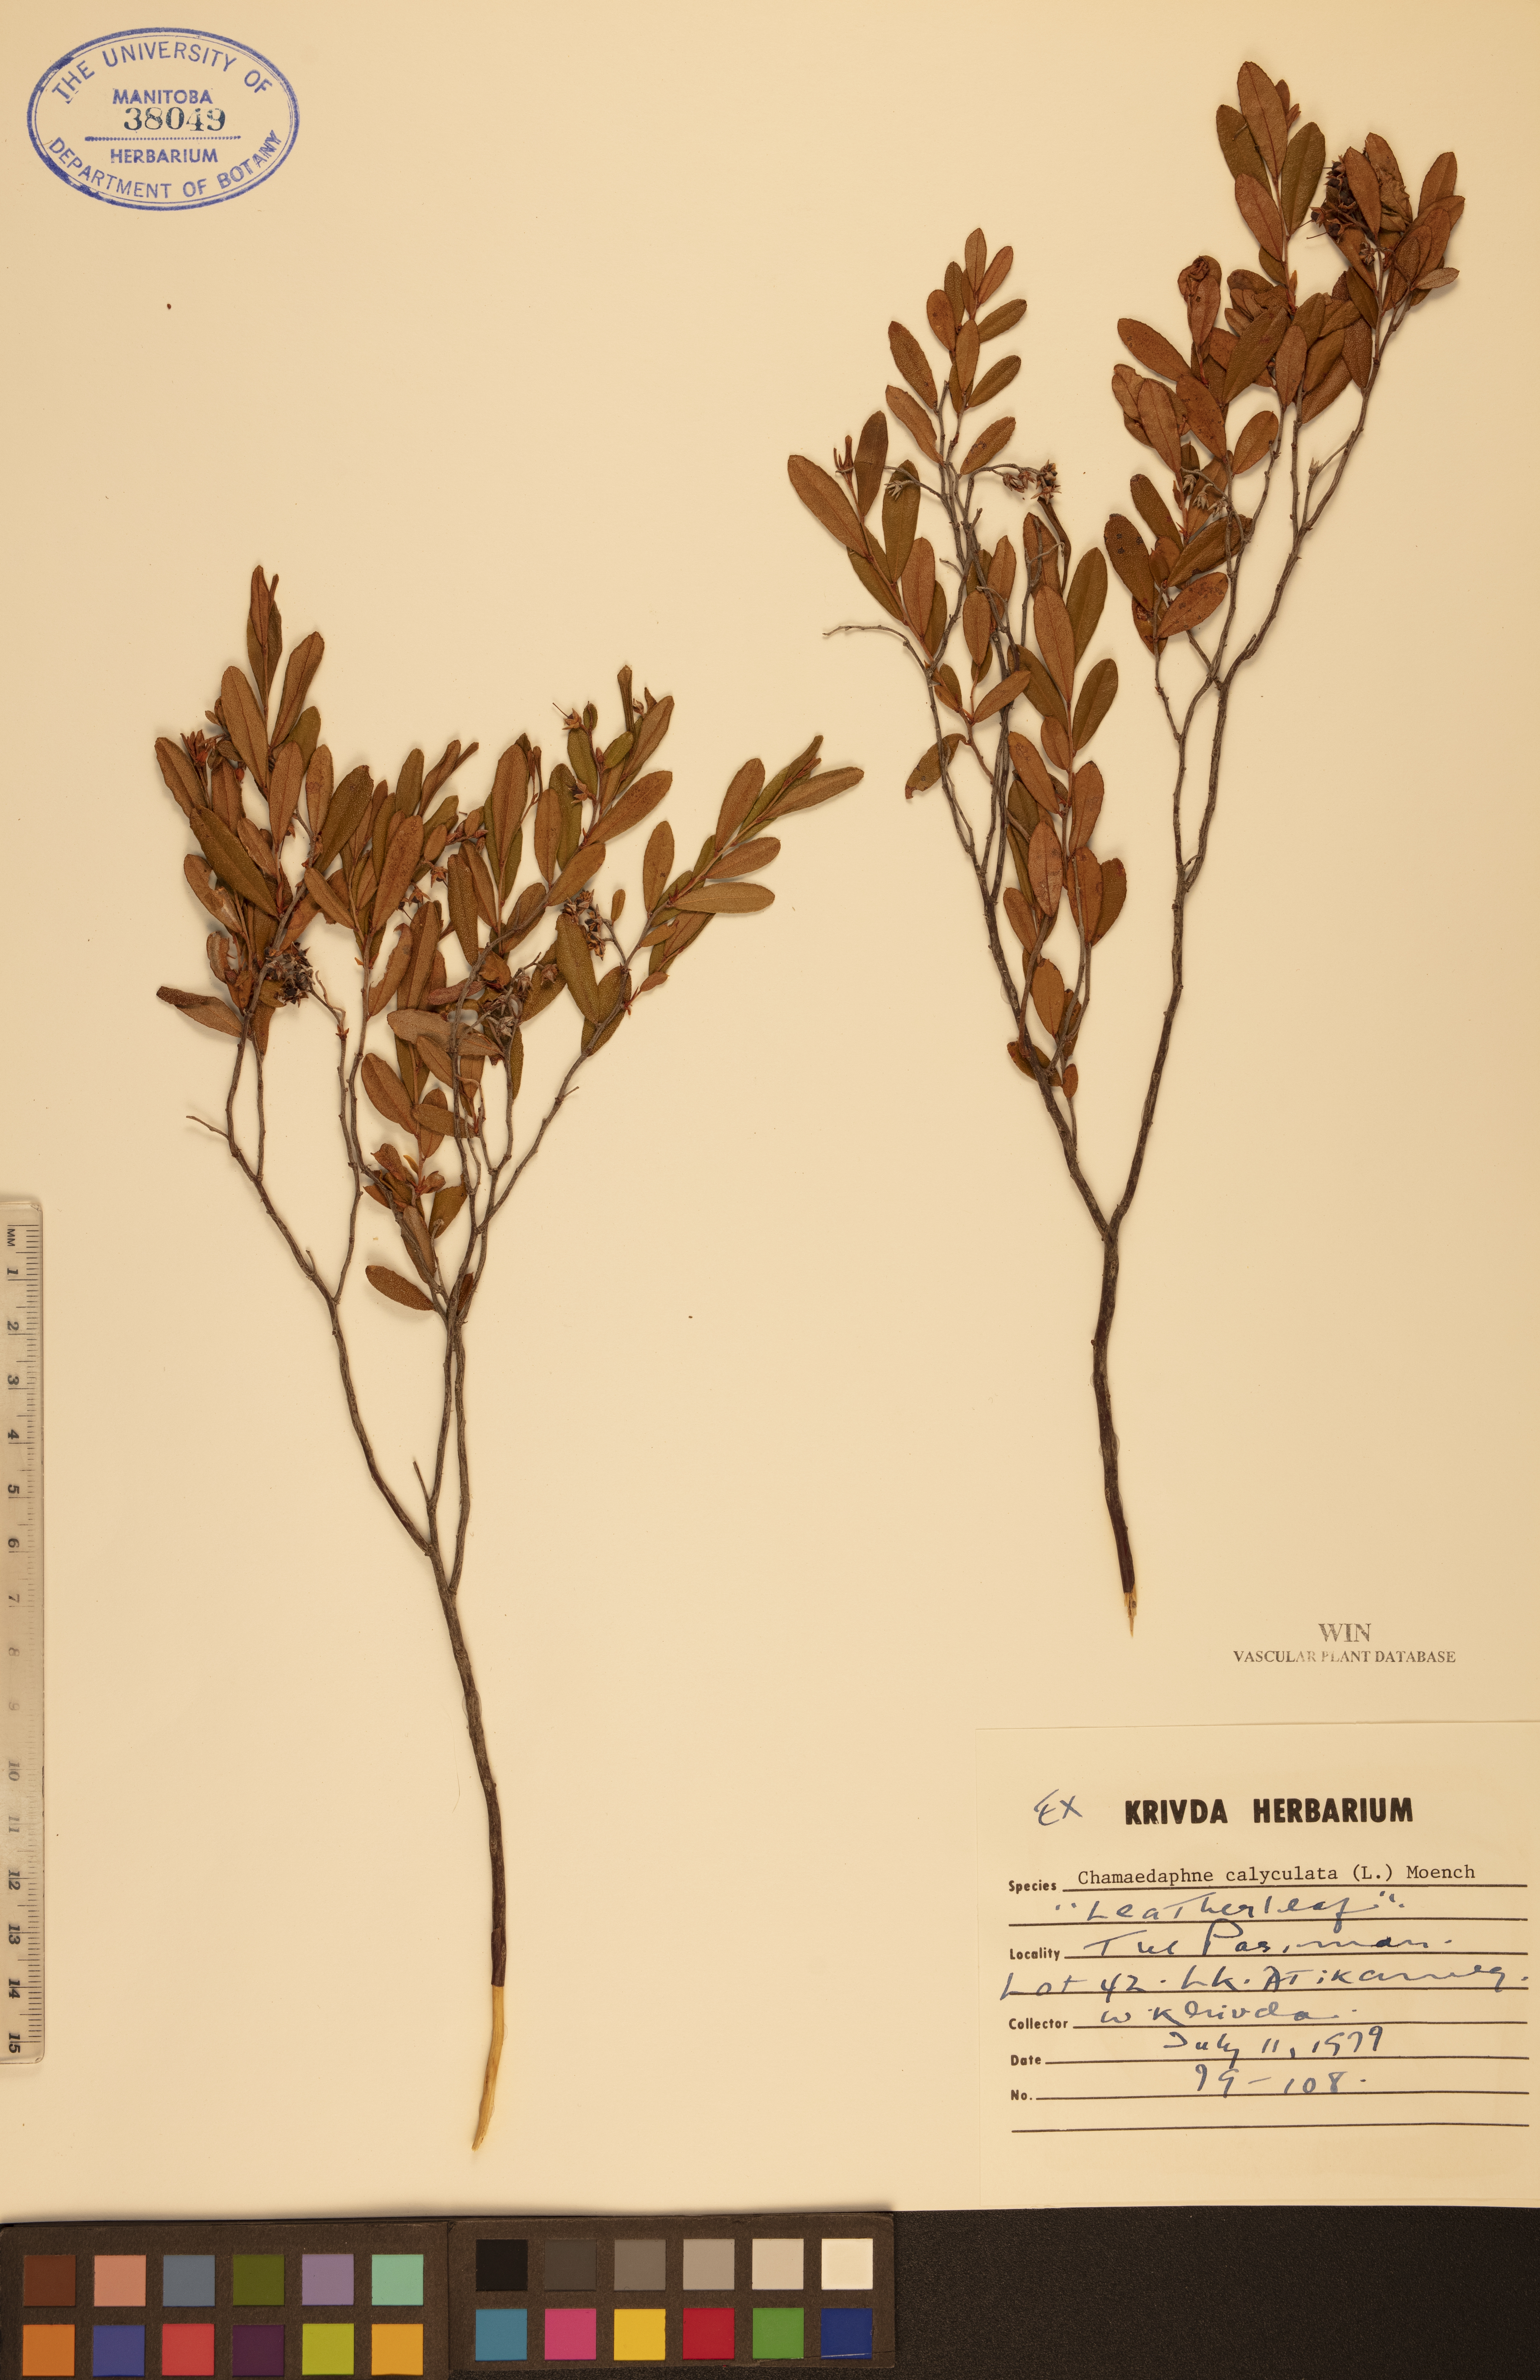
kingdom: Plantae
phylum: Tracheophyta
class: Magnoliopsida
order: Ericales
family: Ericaceae
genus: Chamaedaphne
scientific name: Chamaedaphne calyculata
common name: Leatherleaf
